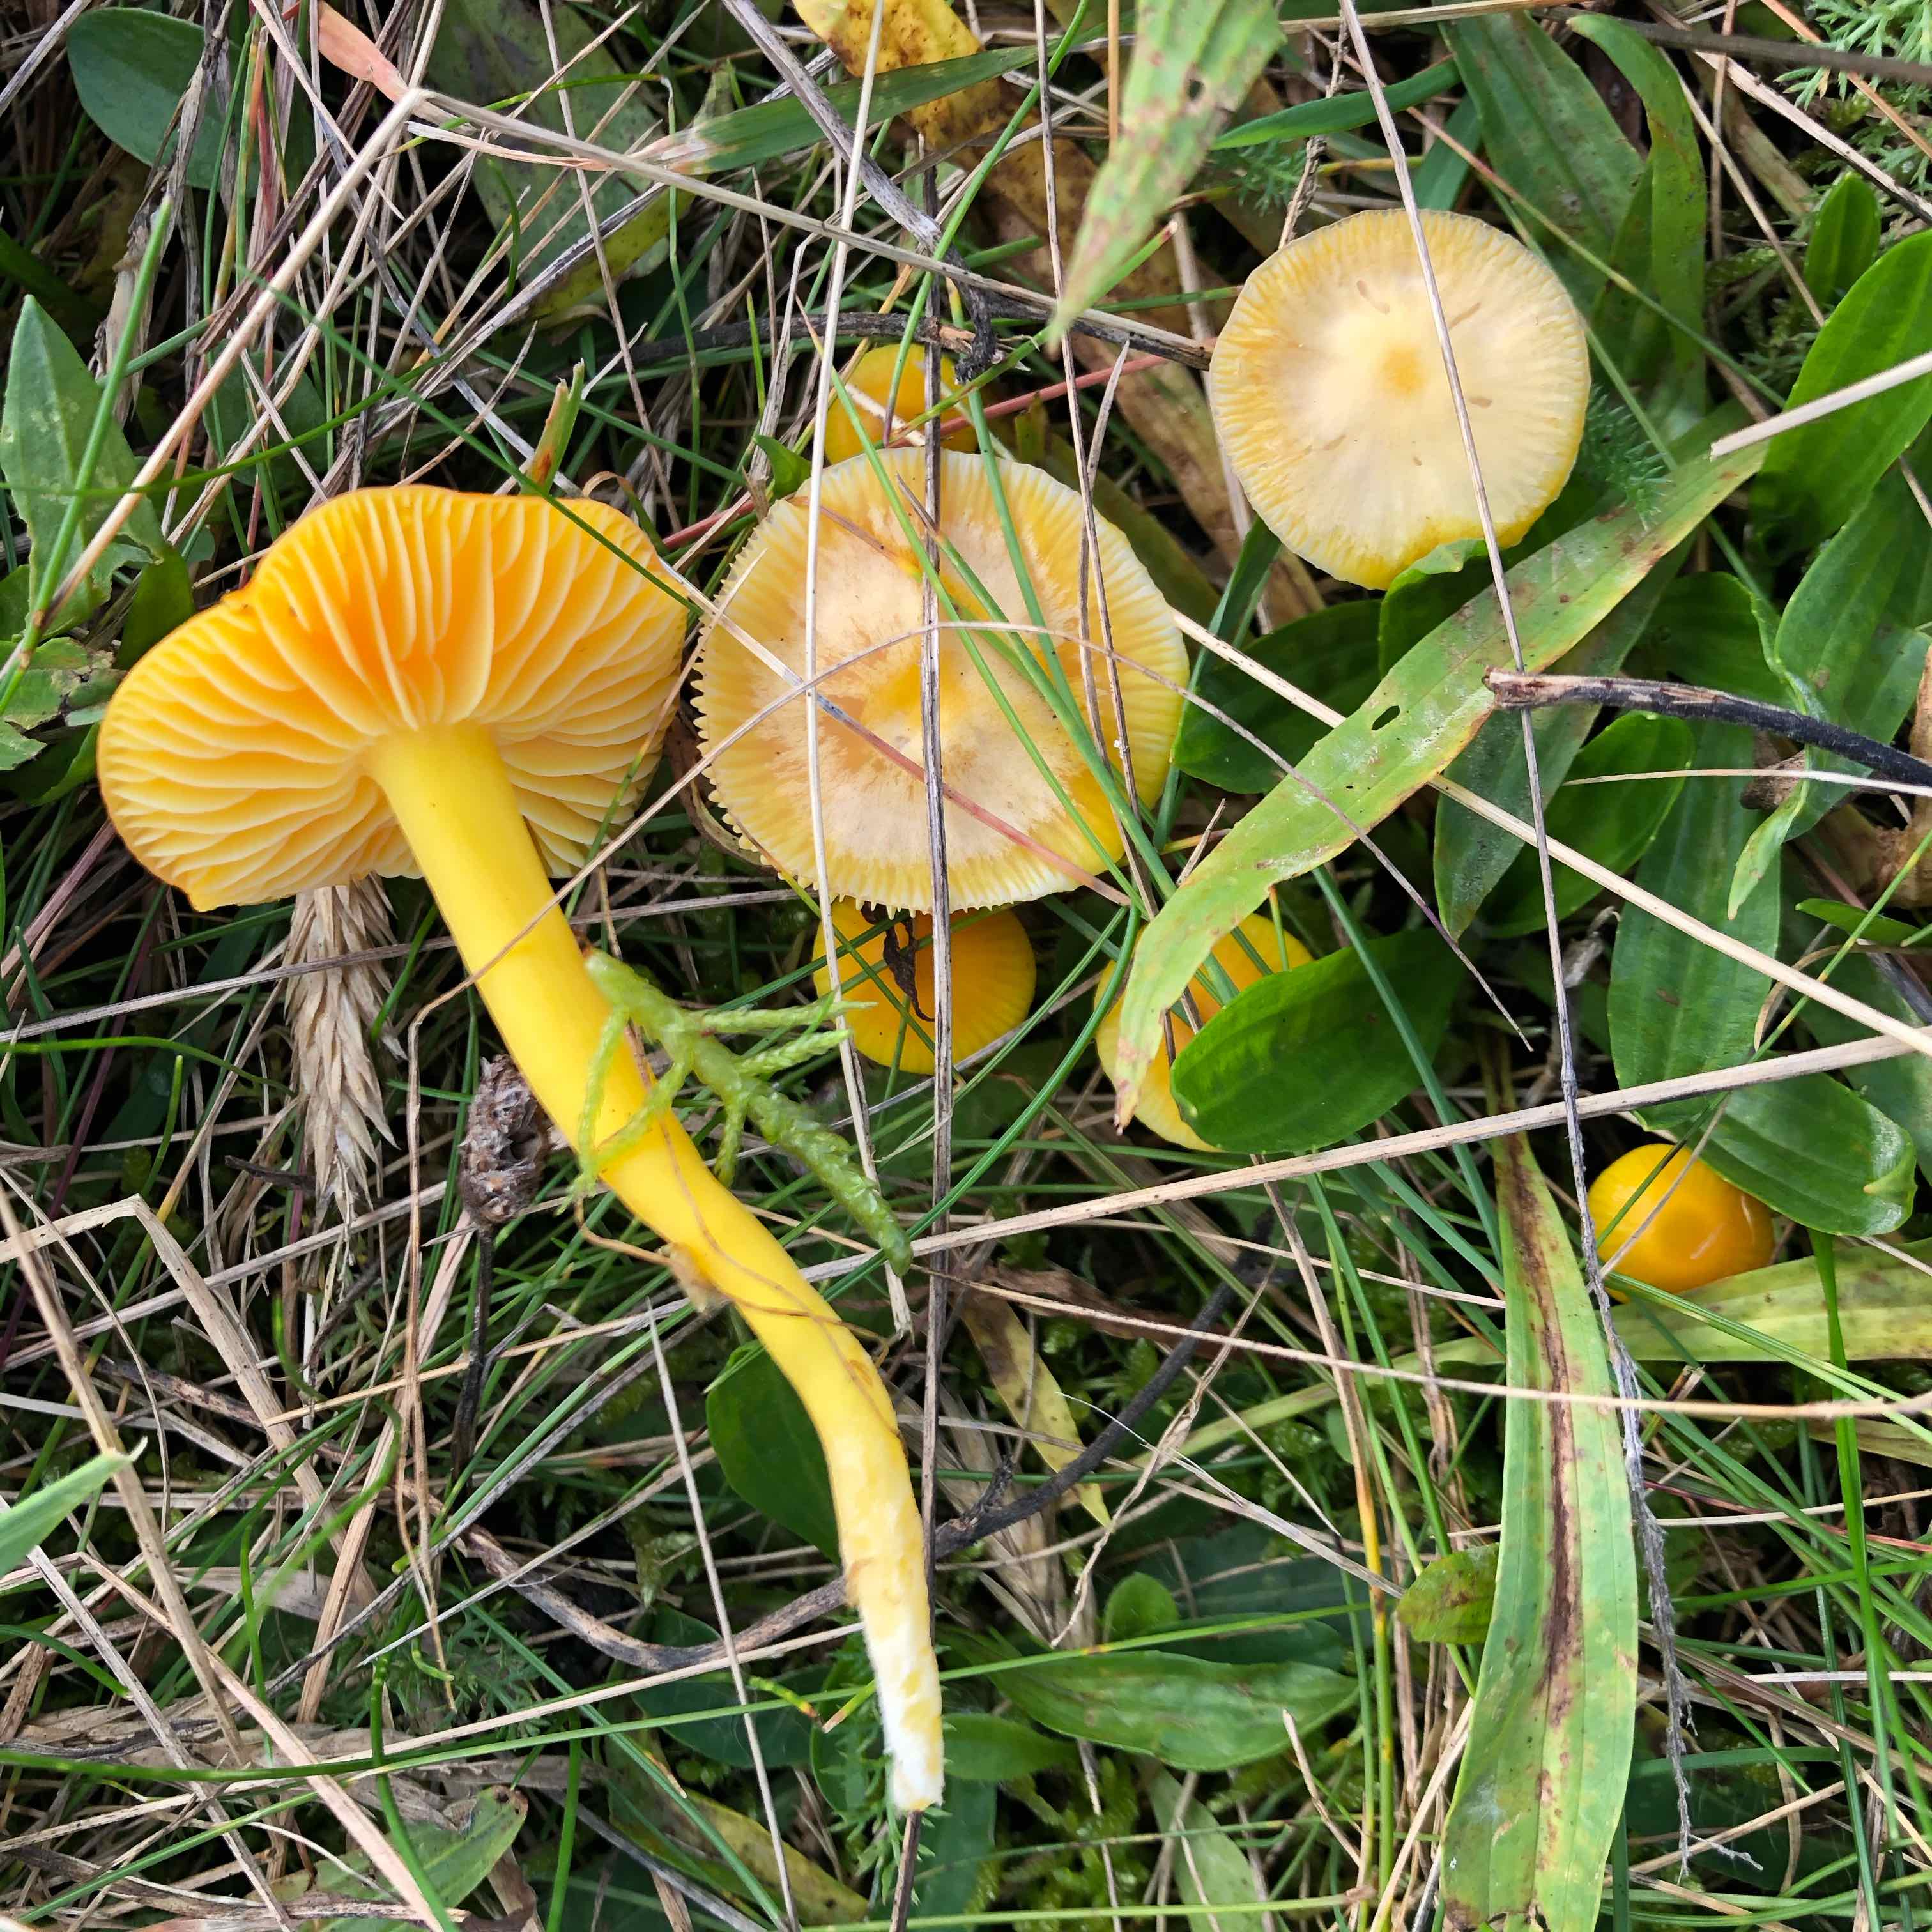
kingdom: Fungi
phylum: Basidiomycota
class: Agaricomycetes
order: Agaricales
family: Hygrophoraceae
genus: Hygrocybe
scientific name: Hygrocybe ceracea
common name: voksgul vokshat
